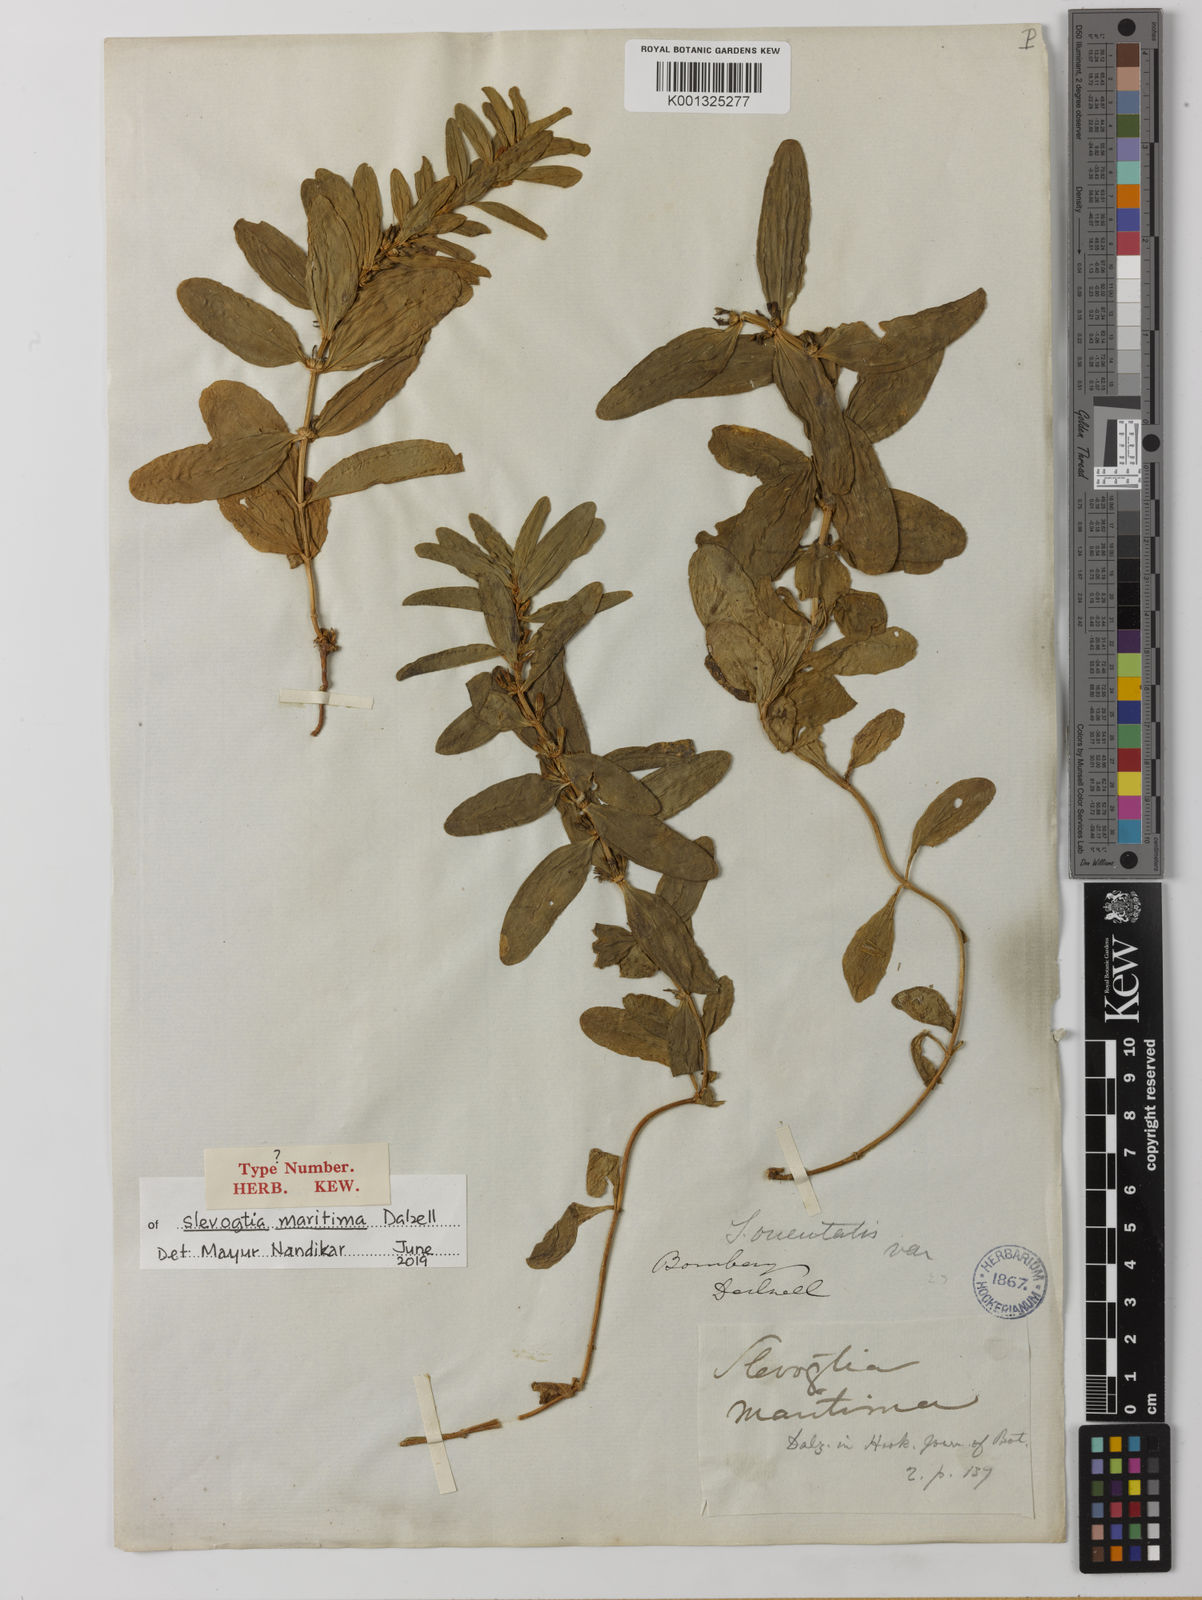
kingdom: Plantae
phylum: Tracheophyta
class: Magnoliopsida
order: Gentianales
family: Gentianaceae
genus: Enicostema
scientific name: Enicostema axillare
